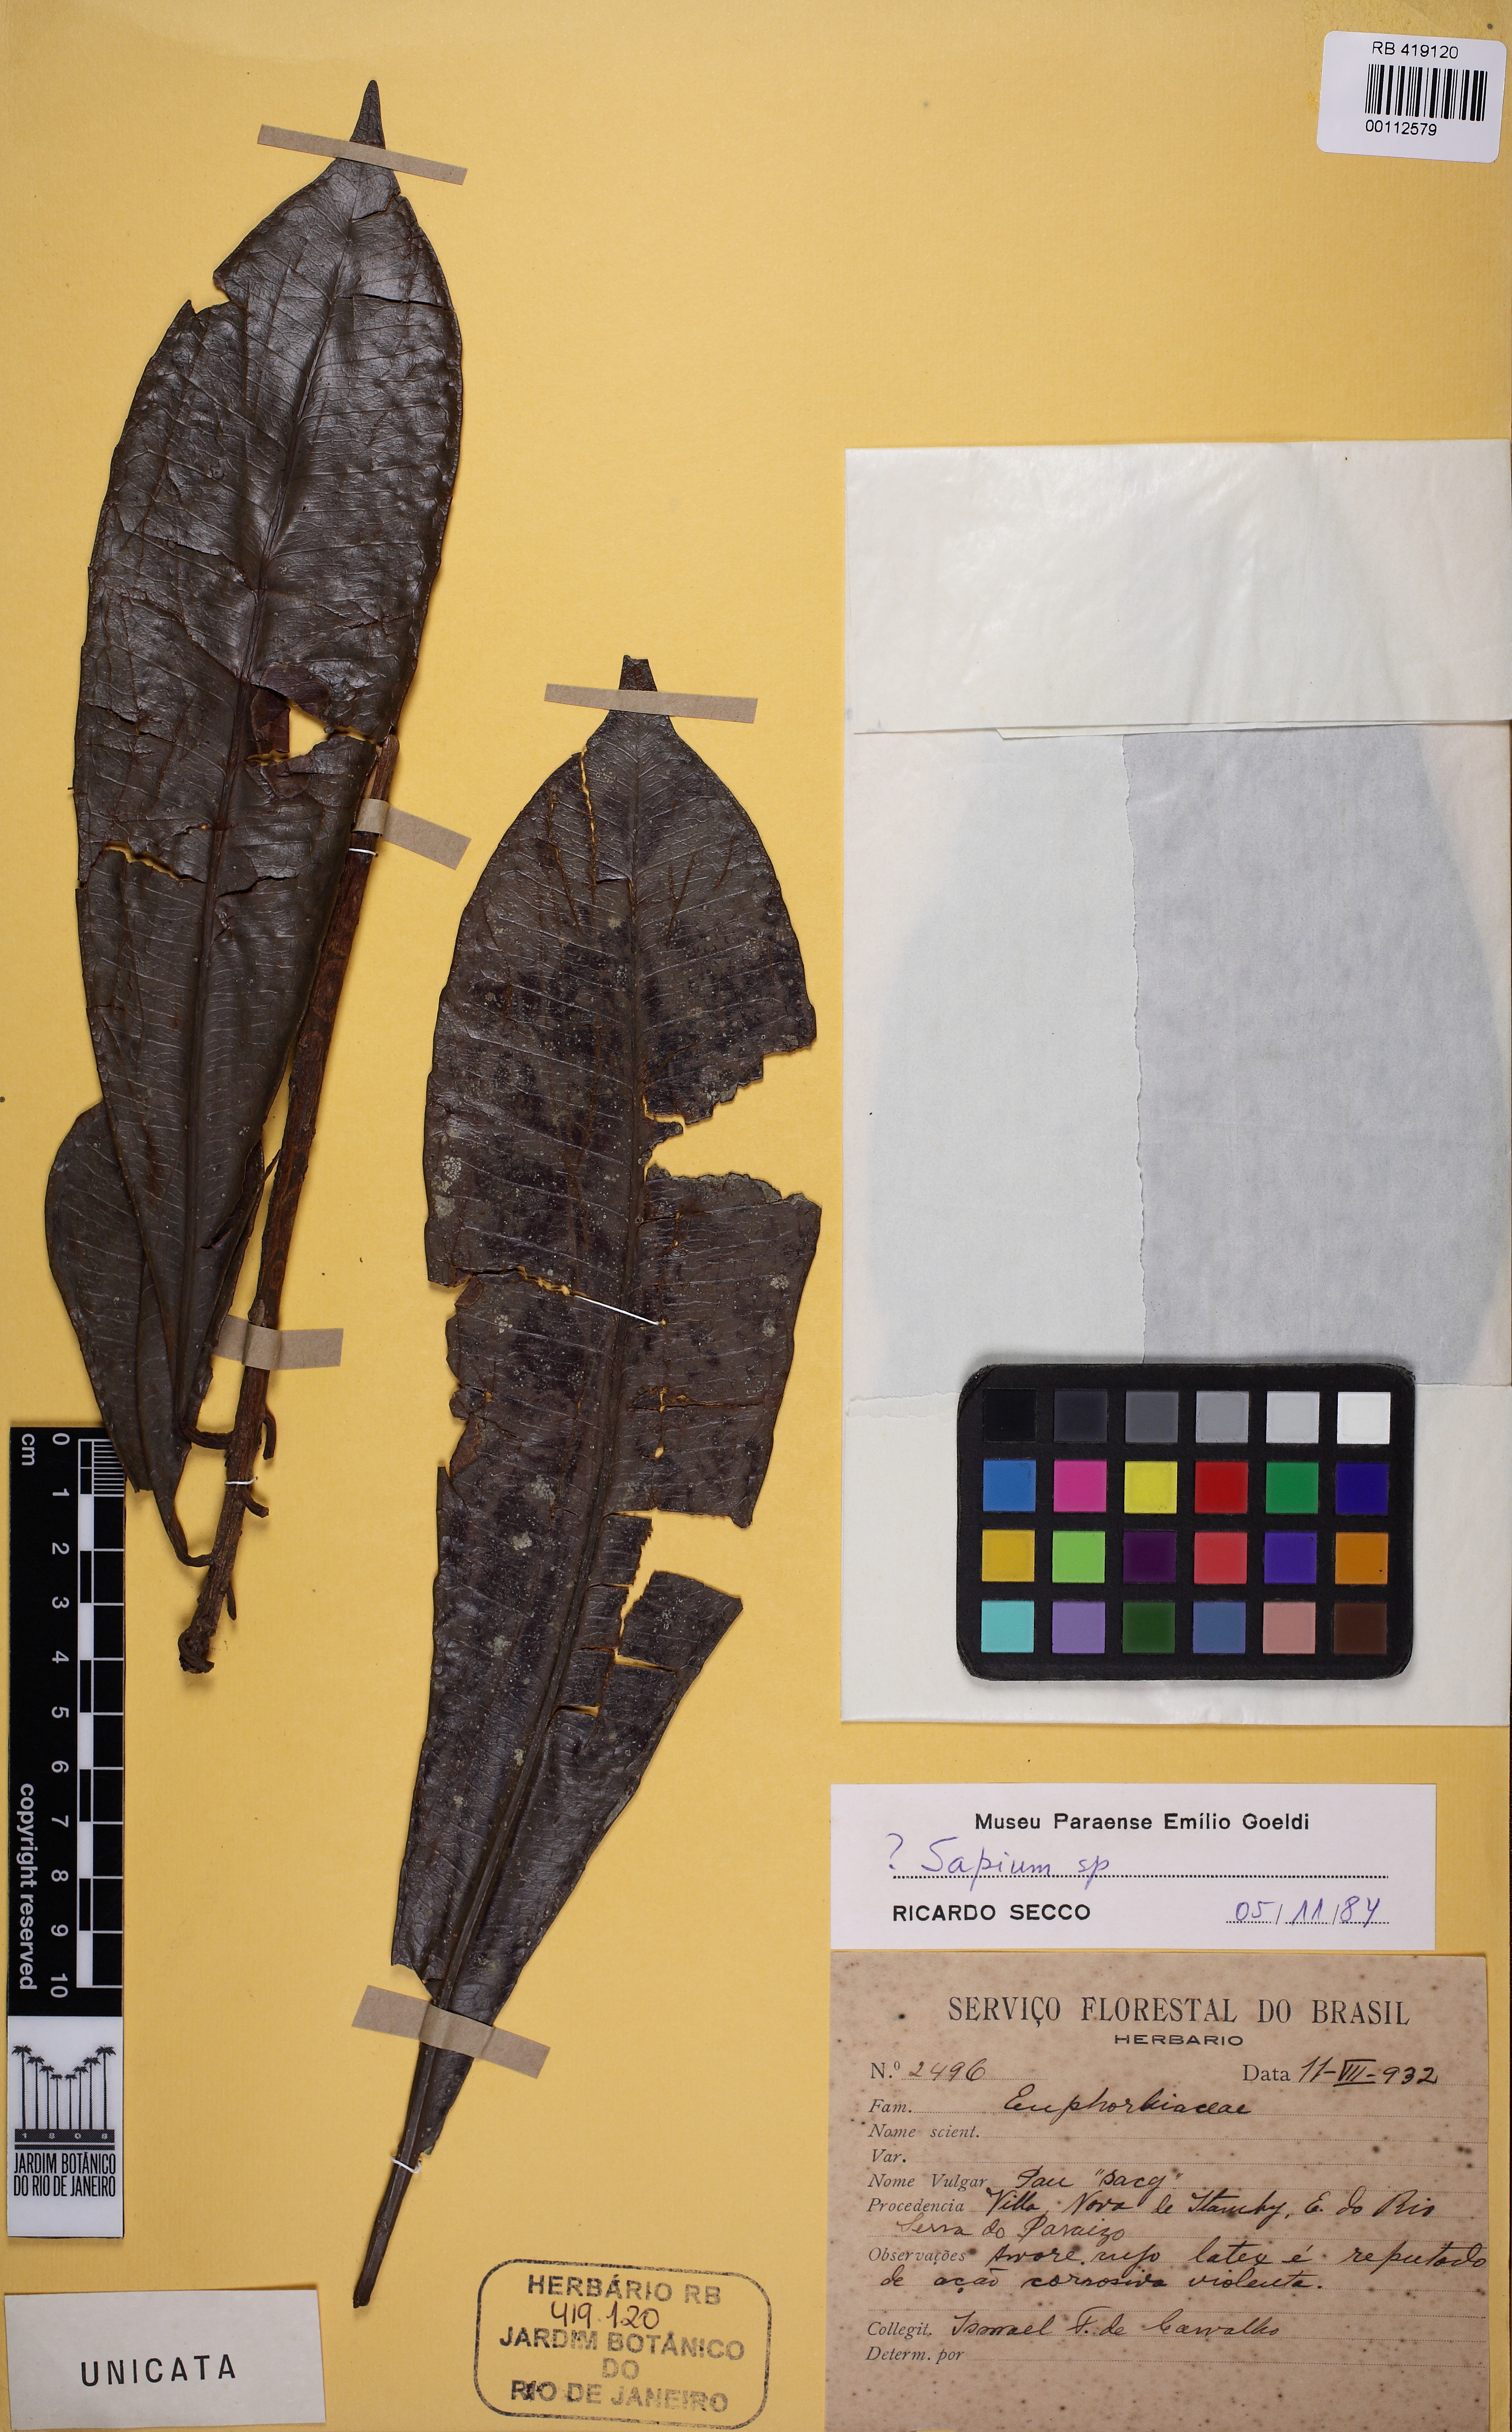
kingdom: Plantae
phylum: Tracheophyta
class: Magnoliopsida
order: Malpighiales
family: Euphorbiaceae
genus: Sapium
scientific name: Sapium
